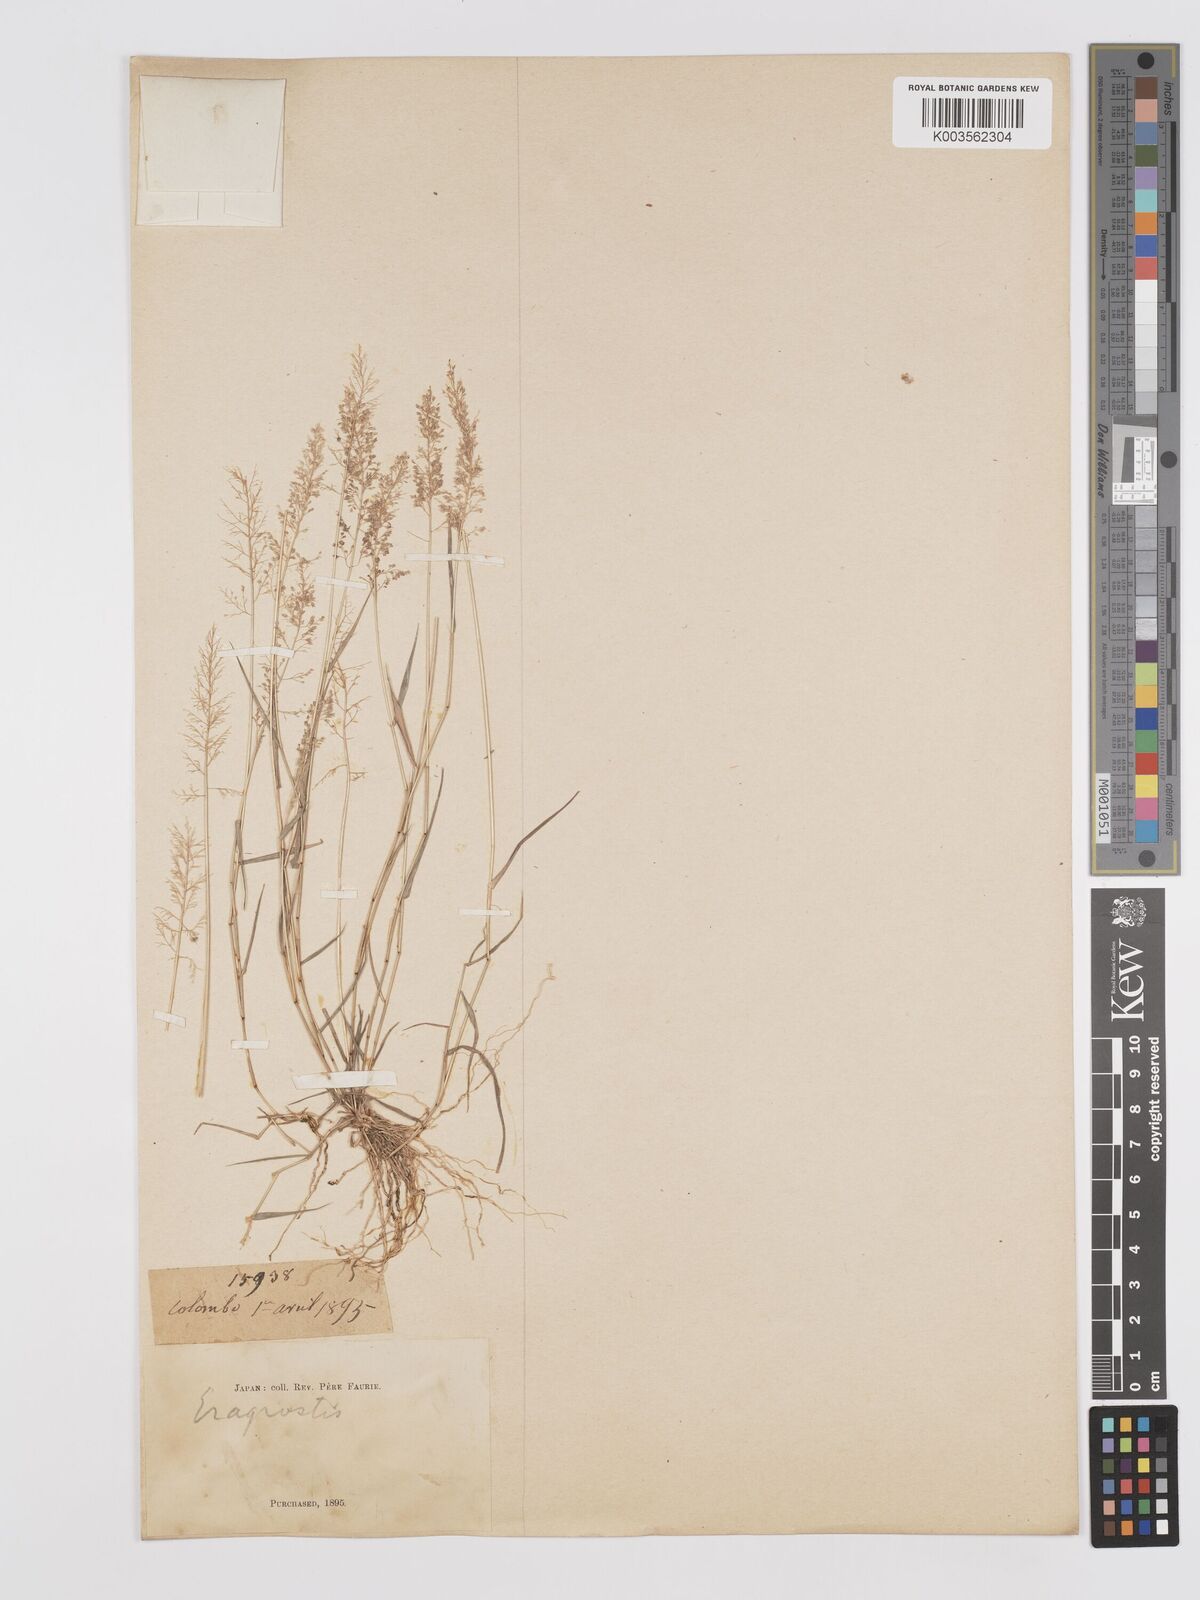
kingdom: Plantae
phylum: Tracheophyta
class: Liliopsida
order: Poales
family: Poaceae
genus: Eragrostis
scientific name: Eragrostis tenella
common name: Japanese lovegrass
